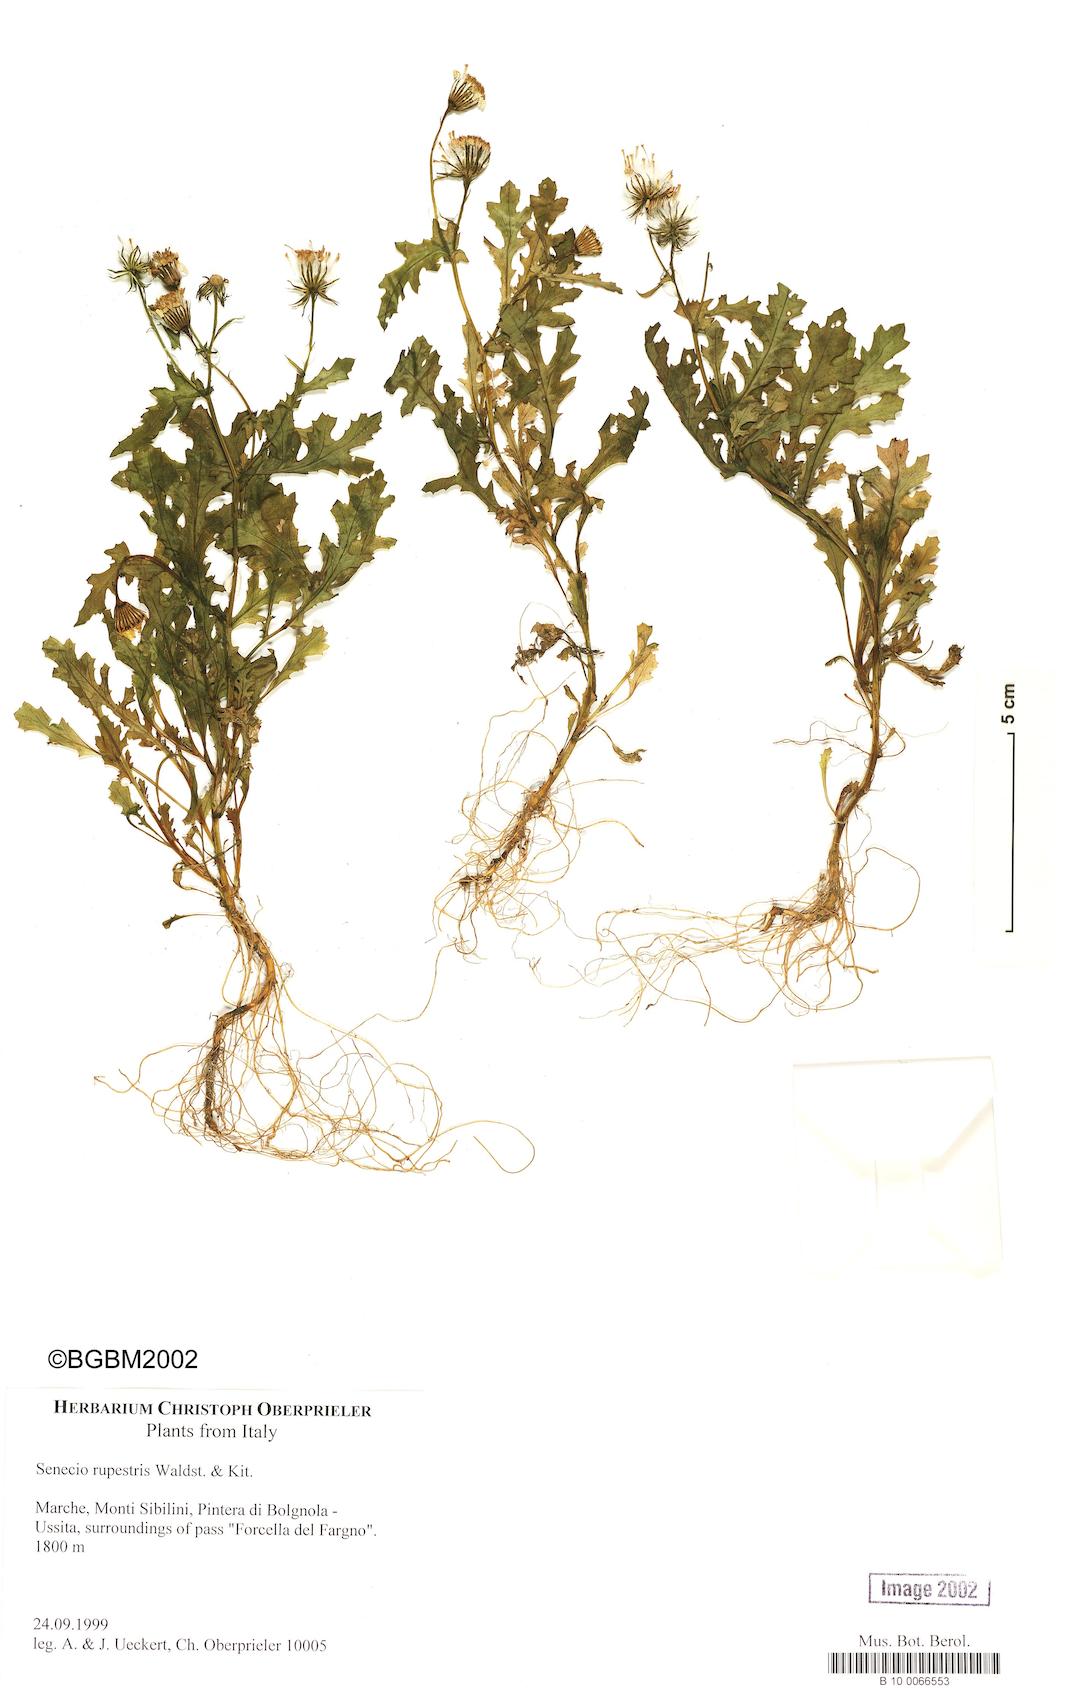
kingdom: Plantae
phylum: Tracheophyta
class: Magnoliopsida
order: Asterales
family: Asteraceae
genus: Senecio
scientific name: Senecio rupestris
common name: Rock ragwort
